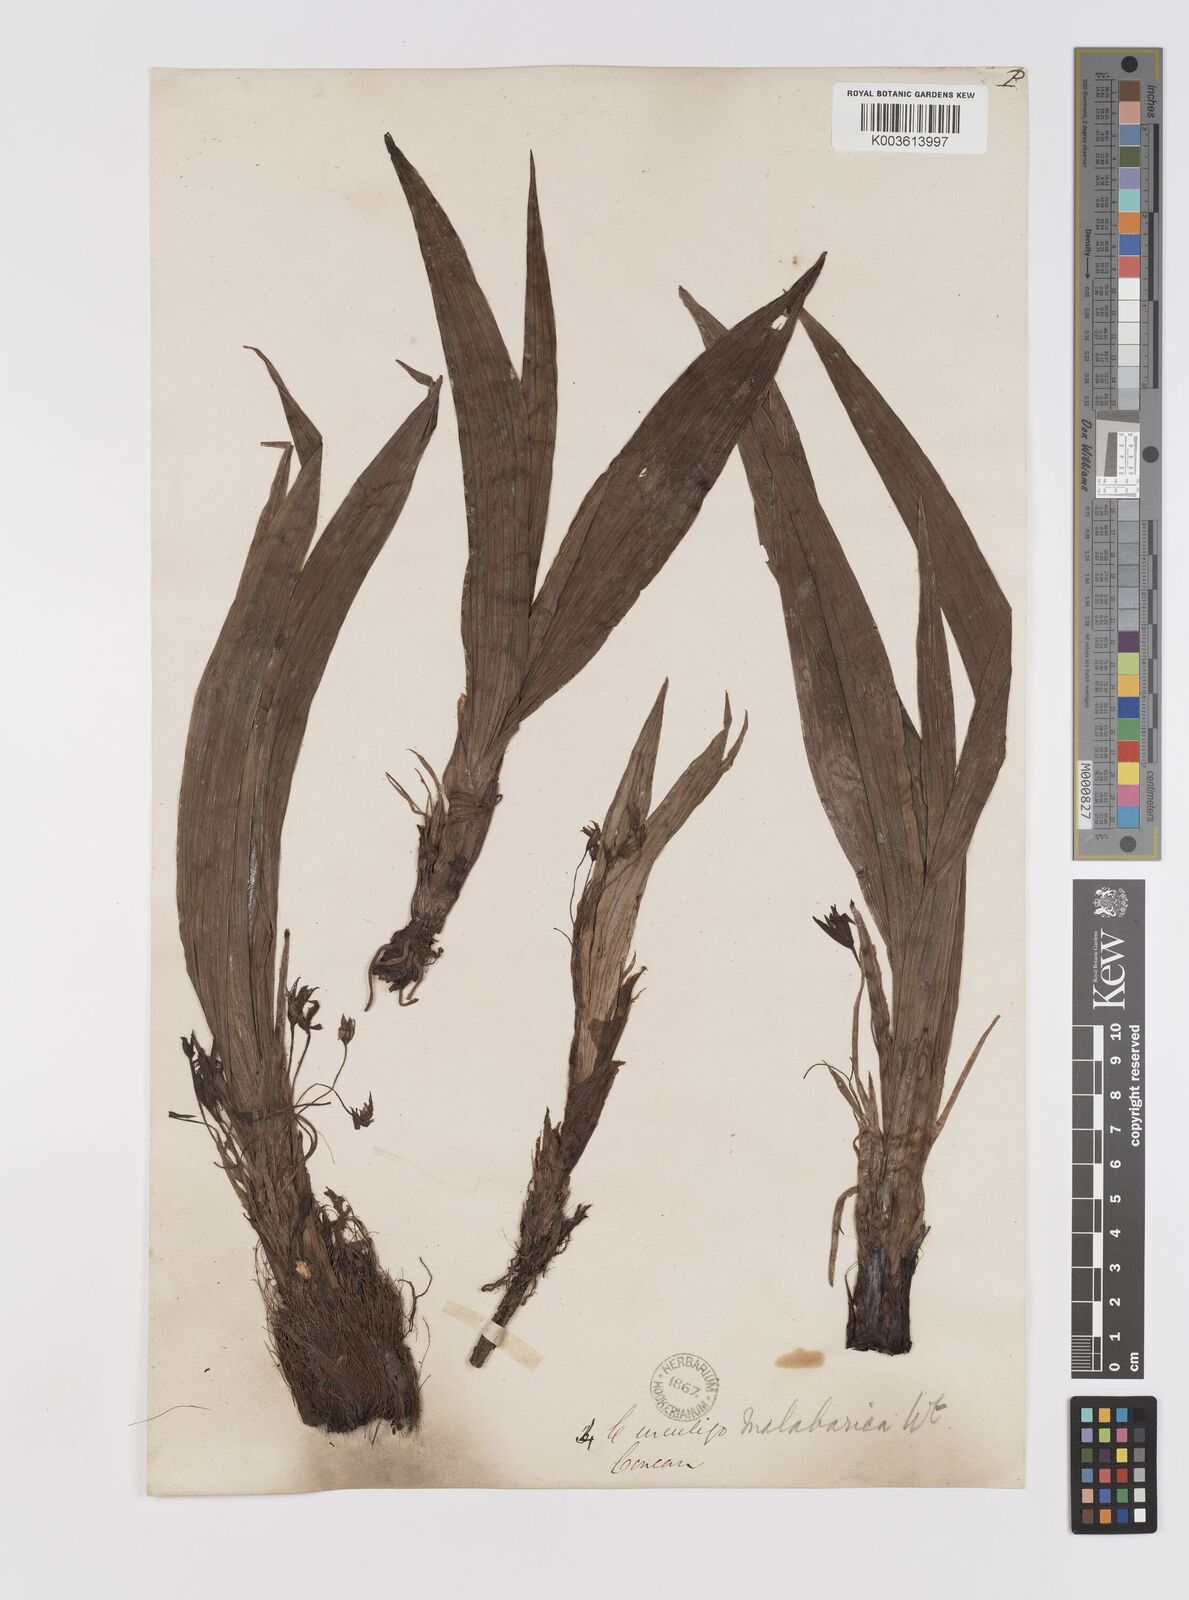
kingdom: Plantae
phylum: Tracheophyta
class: Liliopsida
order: Asparagales
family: Hypoxidaceae
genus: Curculigo
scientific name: Curculigo orchioides
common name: Golden eye-grass
